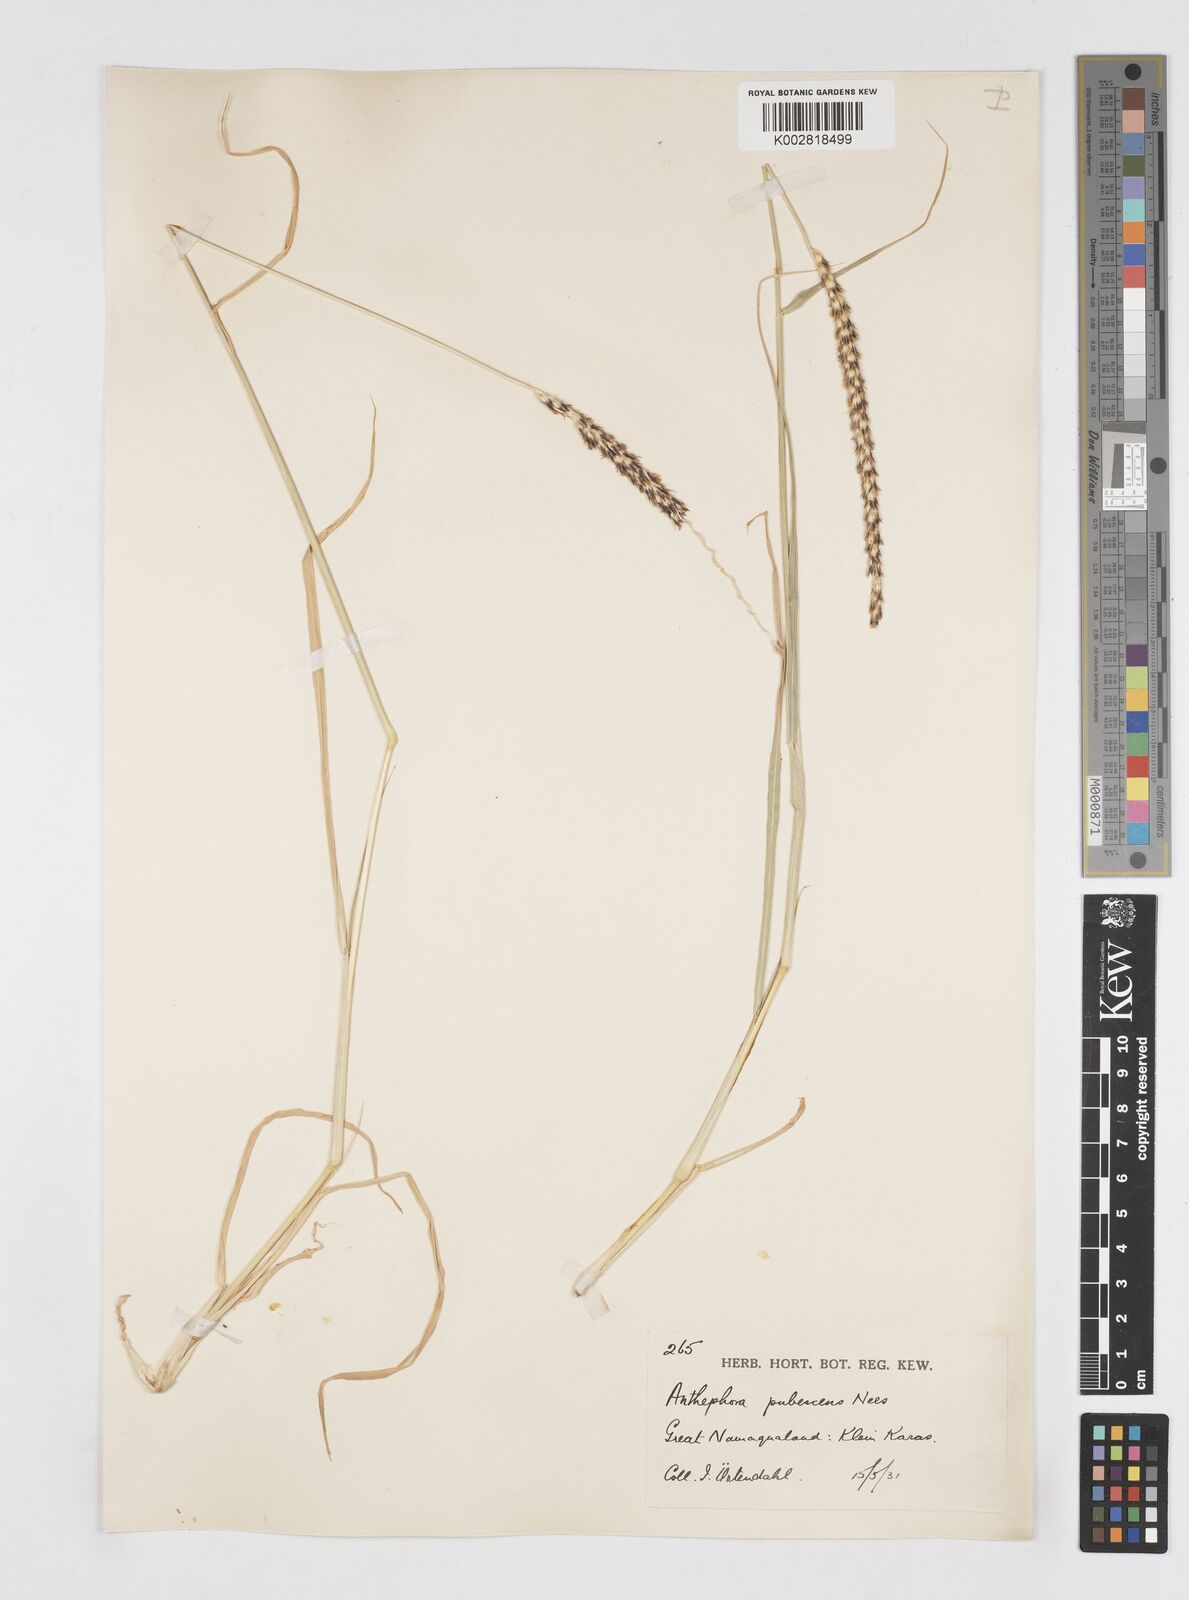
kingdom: Plantae
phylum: Tracheophyta
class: Liliopsida
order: Poales
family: Poaceae
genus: Anthephora
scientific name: Anthephora pubescens
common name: Wool grass
